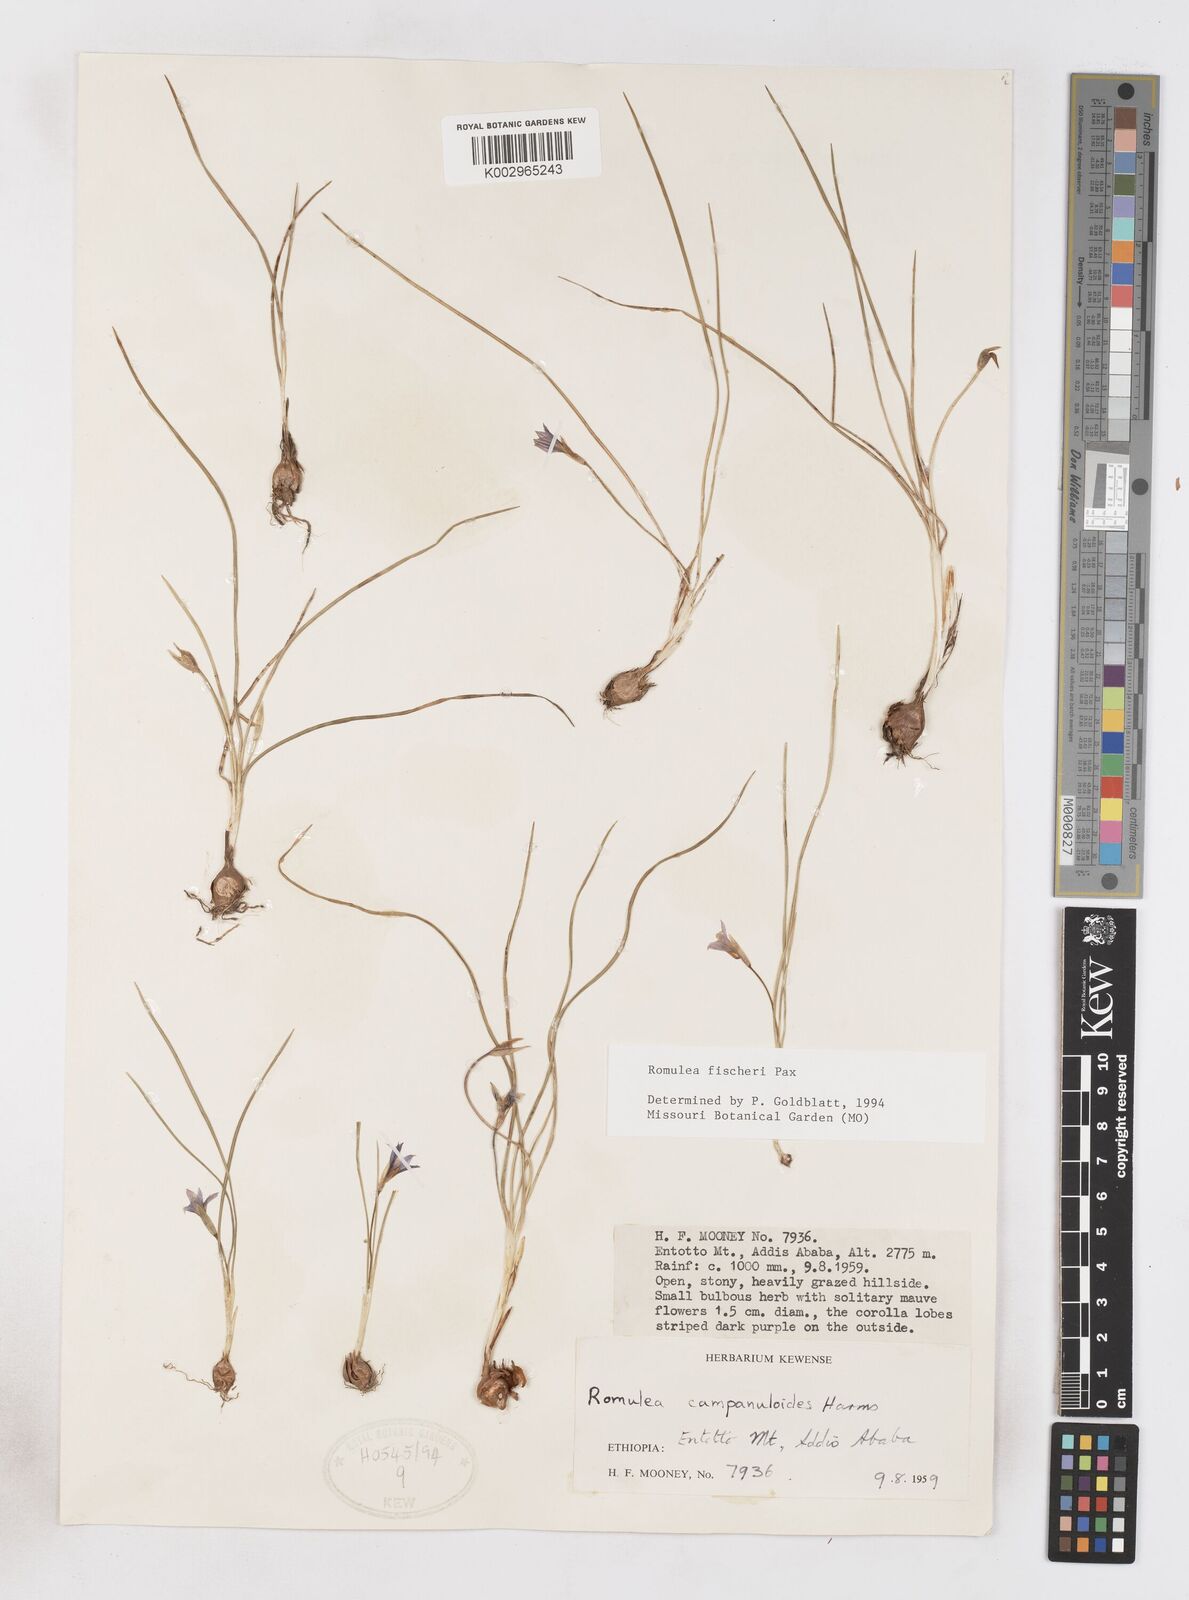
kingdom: Plantae
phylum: Tracheophyta
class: Liliopsida
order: Asparagales
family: Iridaceae
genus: Romulea
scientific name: Romulea fischeri
